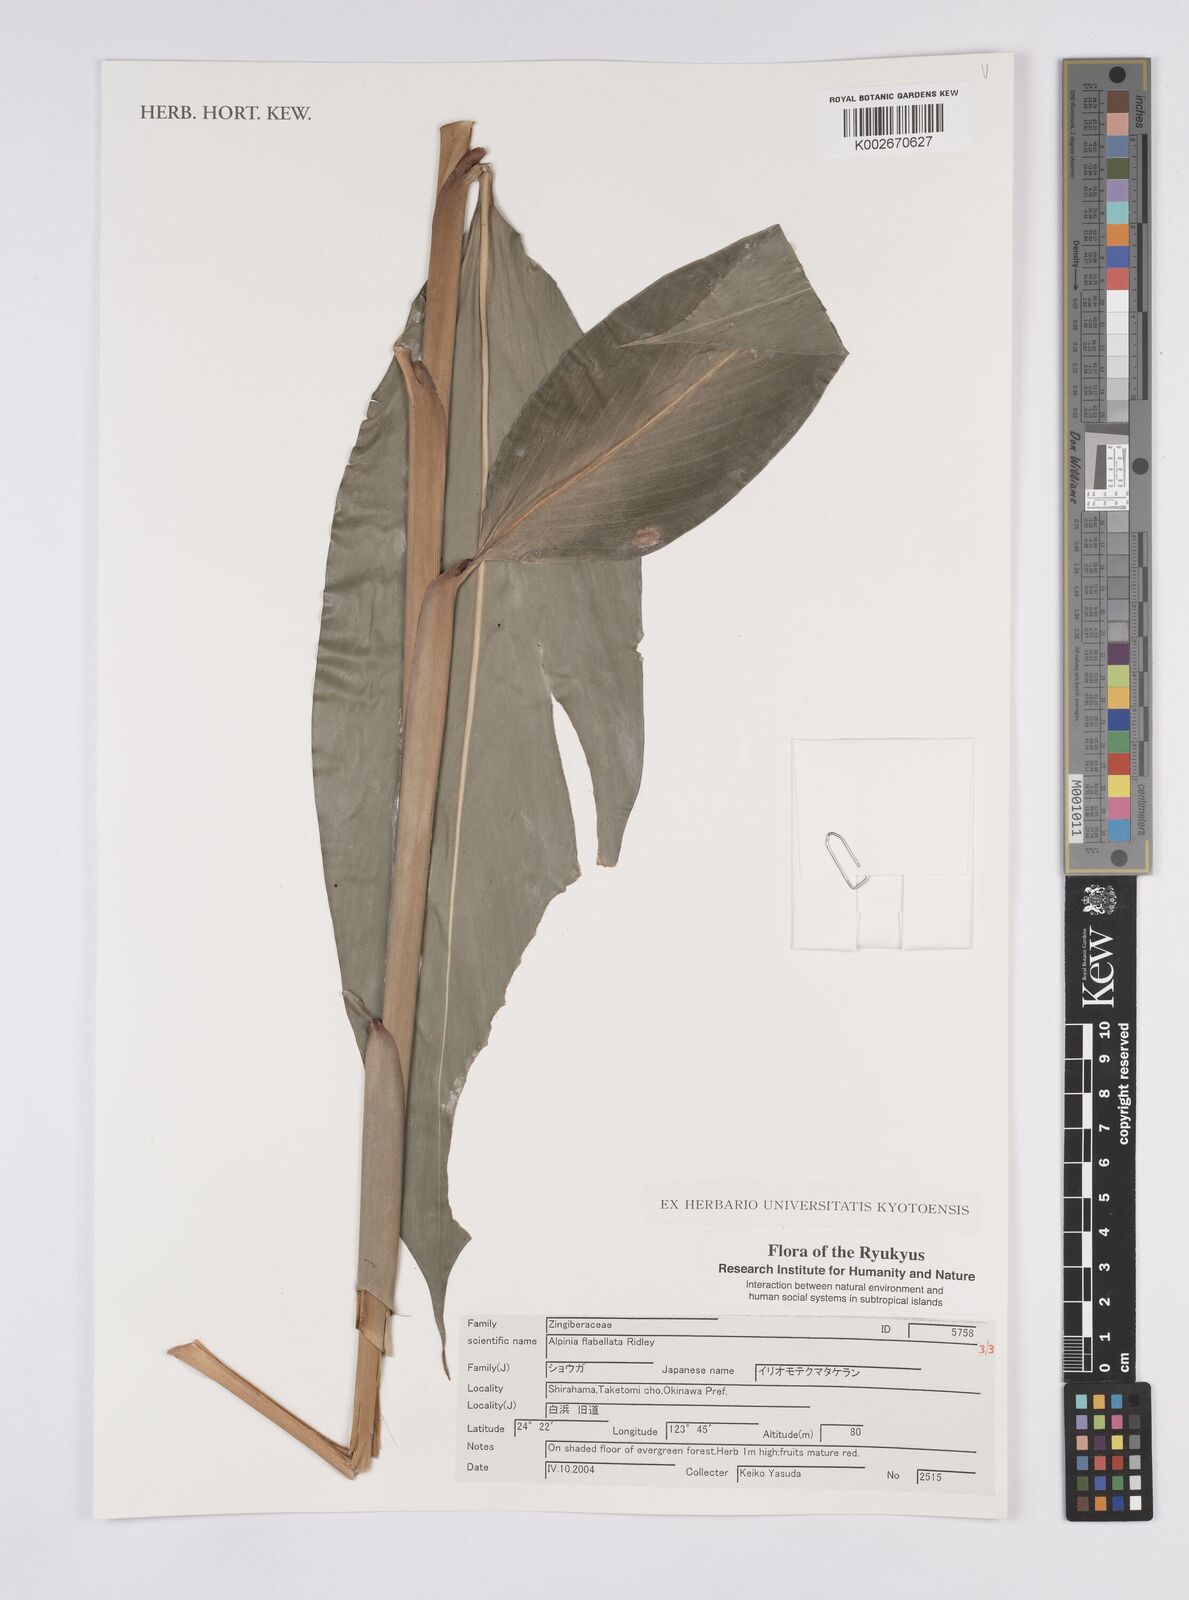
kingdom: Plantae
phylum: Tracheophyta
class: Liliopsida
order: Zingiberales
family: Zingiberaceae
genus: Alpinia
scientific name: Alpinia flabellata
